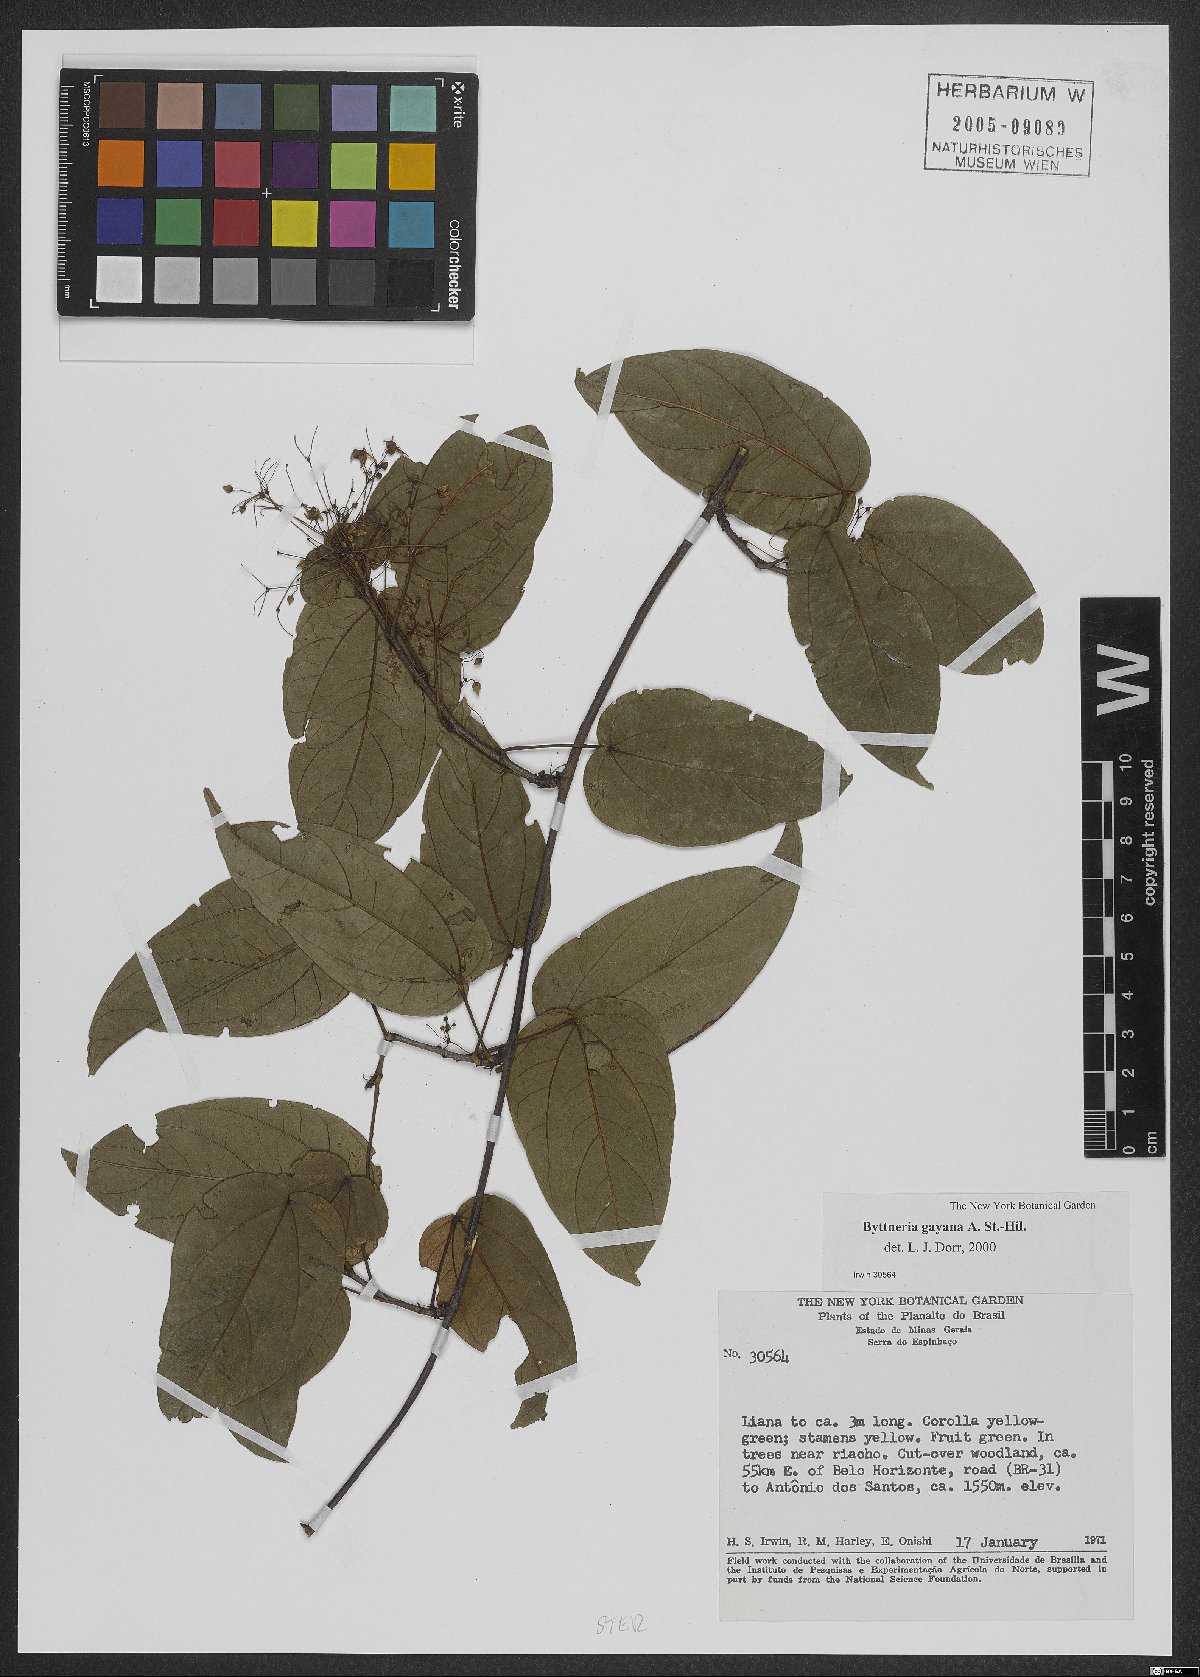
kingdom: Plantae
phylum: Tracheophyta
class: Magnoliopsida
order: Malvales
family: Malvaceae
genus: Byttneria
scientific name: Byttneria gayana
